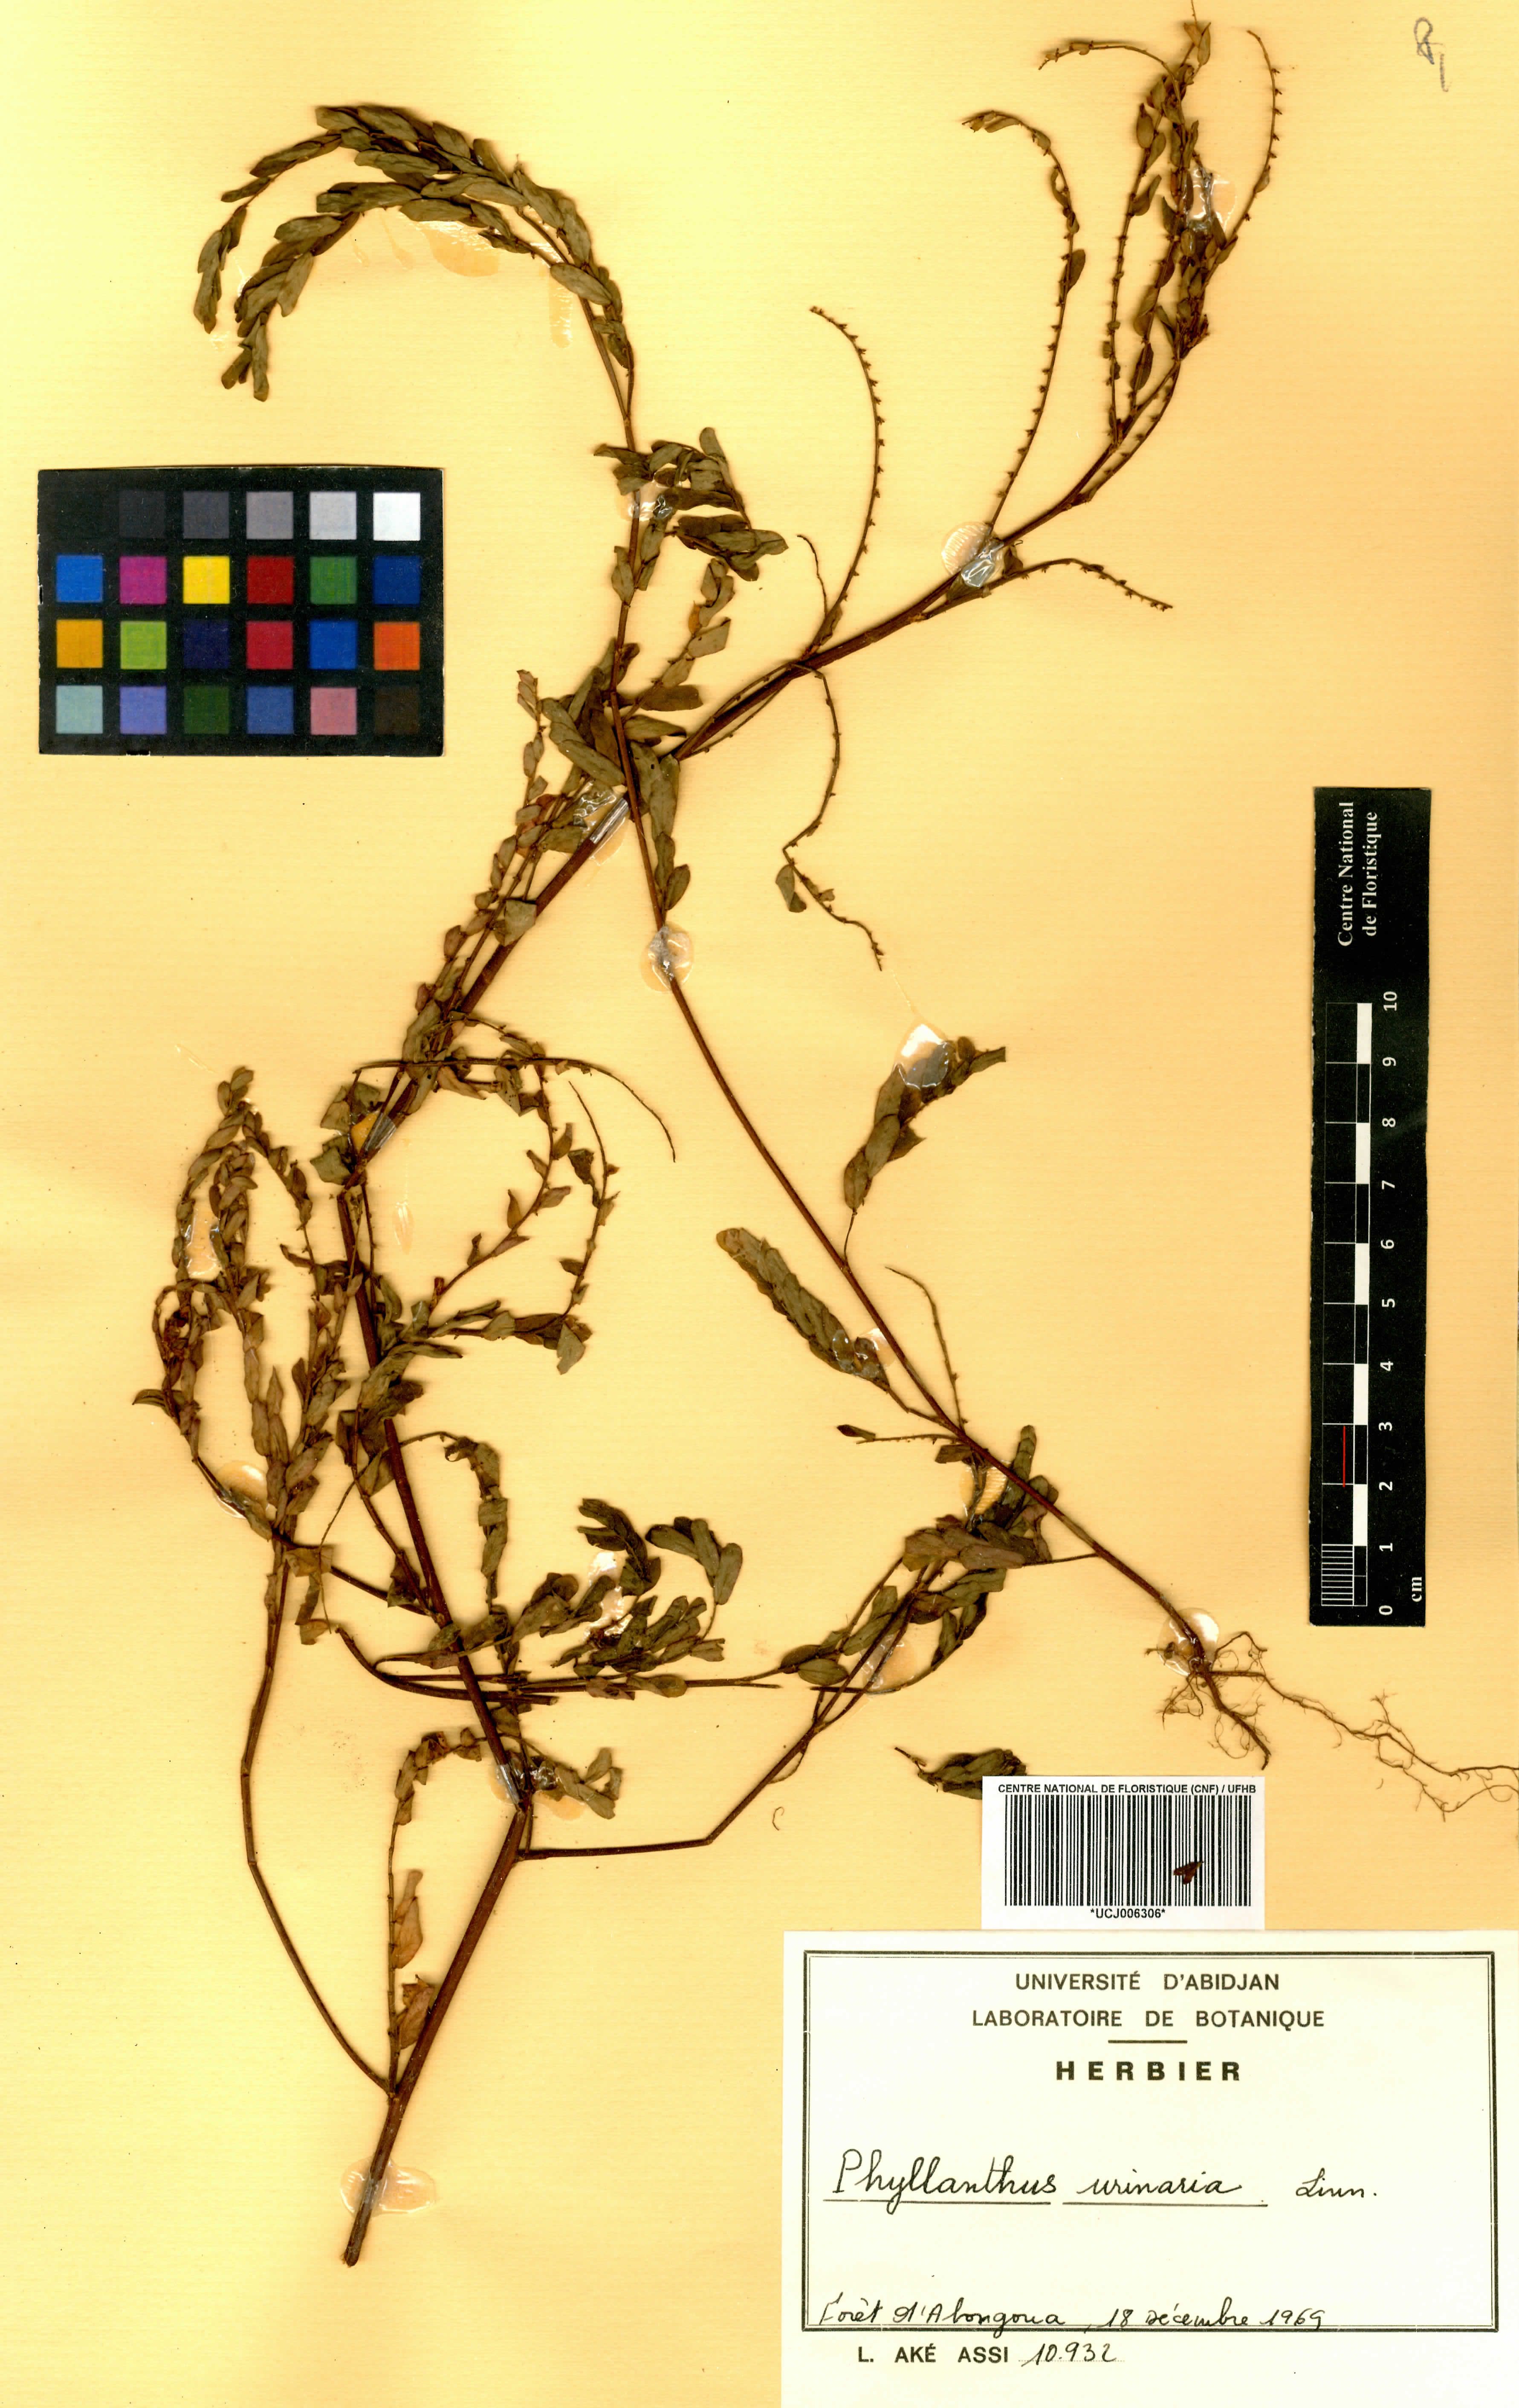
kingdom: Plantae
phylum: Tracheophyta
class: Magnoliopsida
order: Malpighiales
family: Phyllanthaceae
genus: Phyllanthus
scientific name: Phyllanthus urinaria
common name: Chamber bitter
